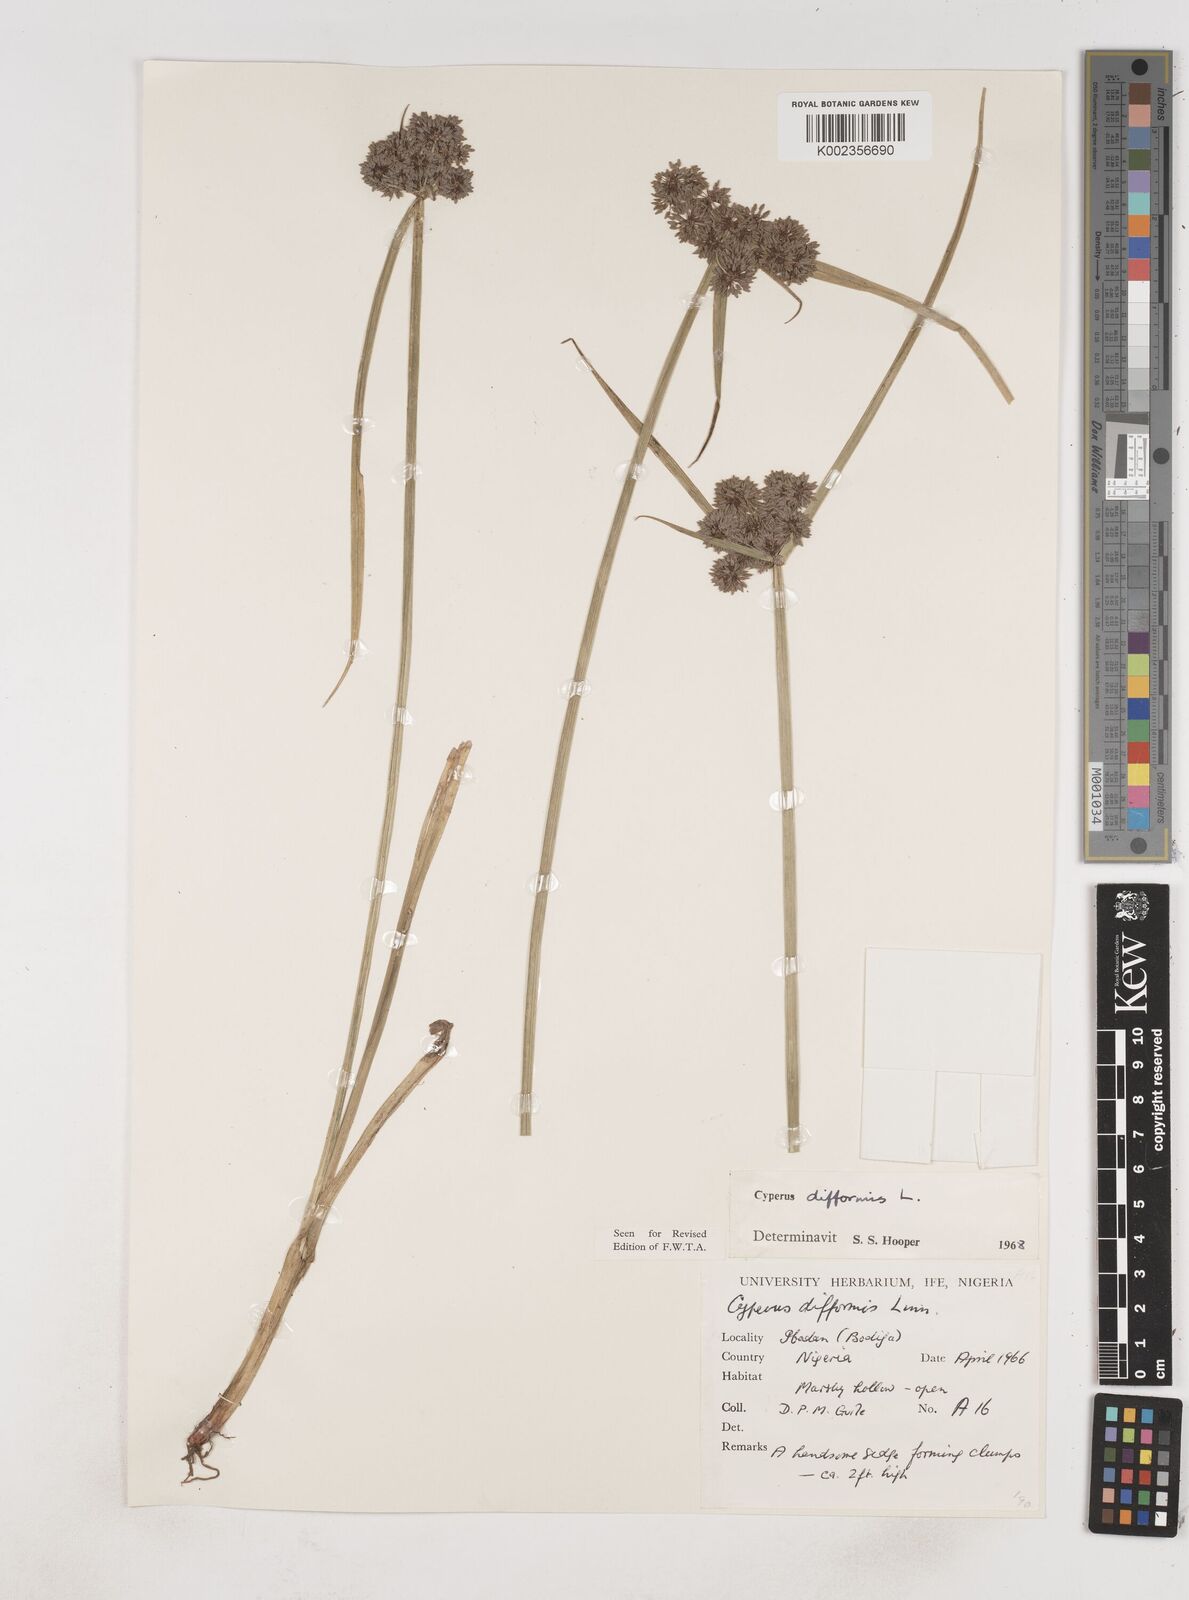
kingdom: Plantae
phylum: Tracheophyta
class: Liliopsida
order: Poales
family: Cyperaceae
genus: Cyperus
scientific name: Cyperus difformis
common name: Variable flatsedge
